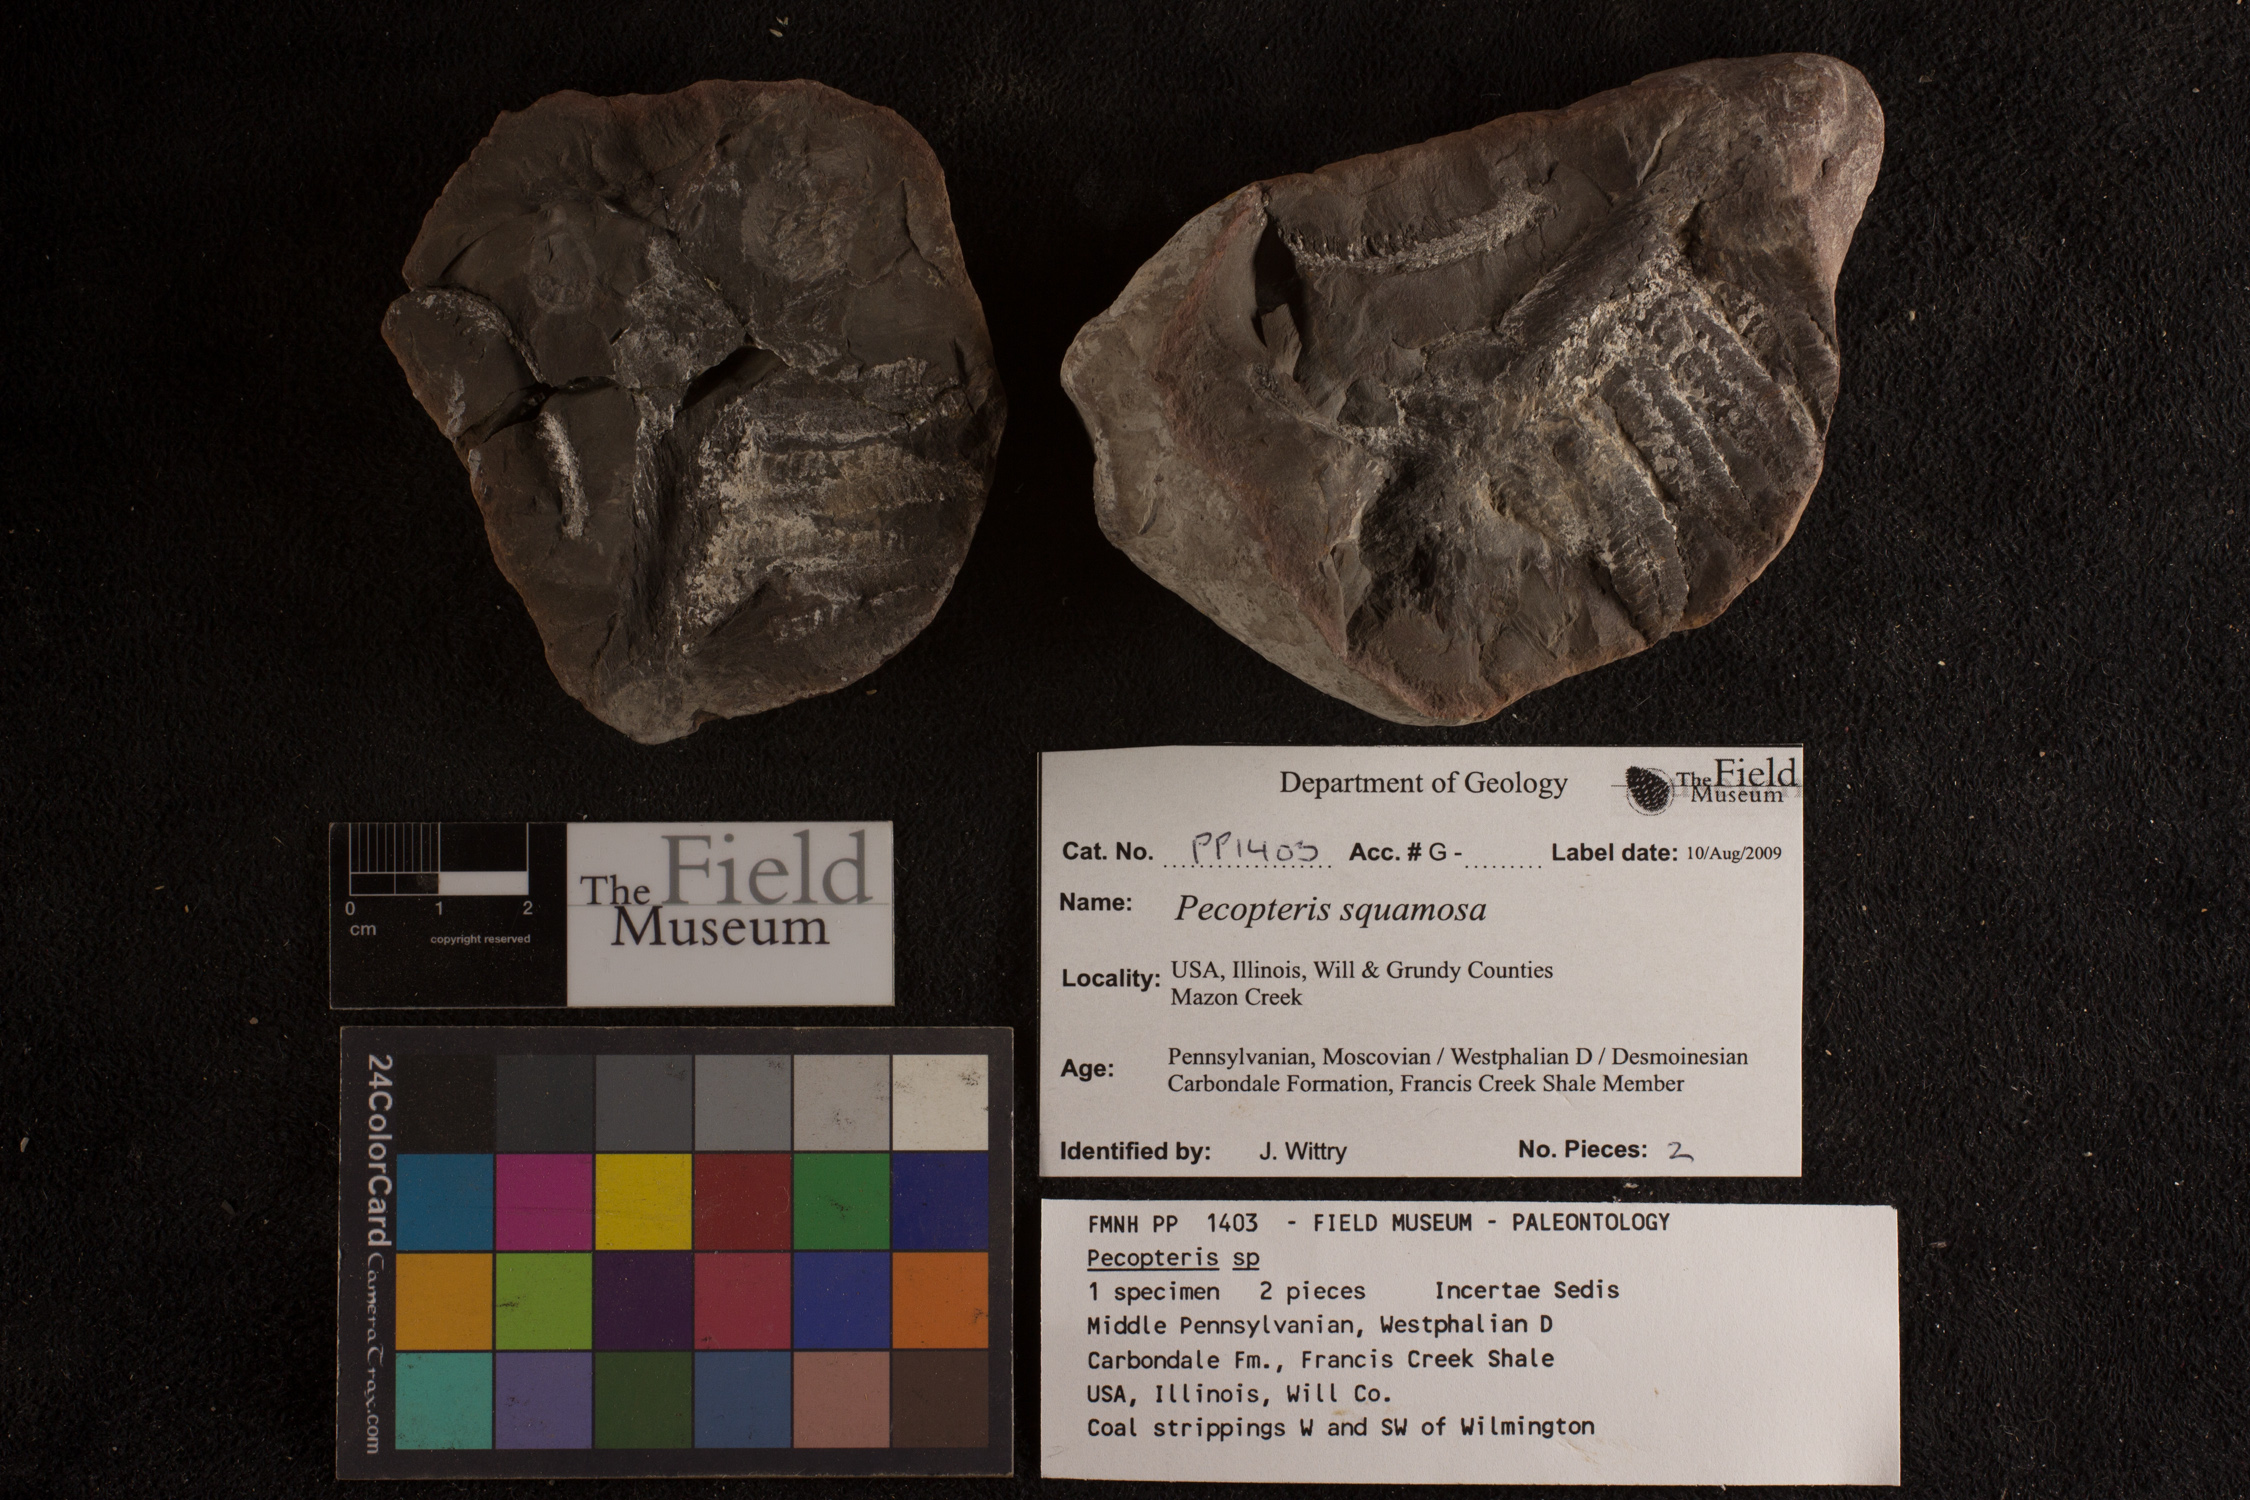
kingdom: Plantae
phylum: Tracheophyta
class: Polypodiopsida
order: Marattiales
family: Asterothecaceae
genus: Pecopteris
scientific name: Pecopteris
